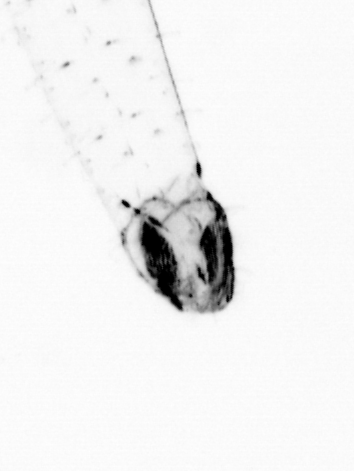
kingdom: Animalia
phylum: Chaetognatha
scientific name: Chaetognatha
